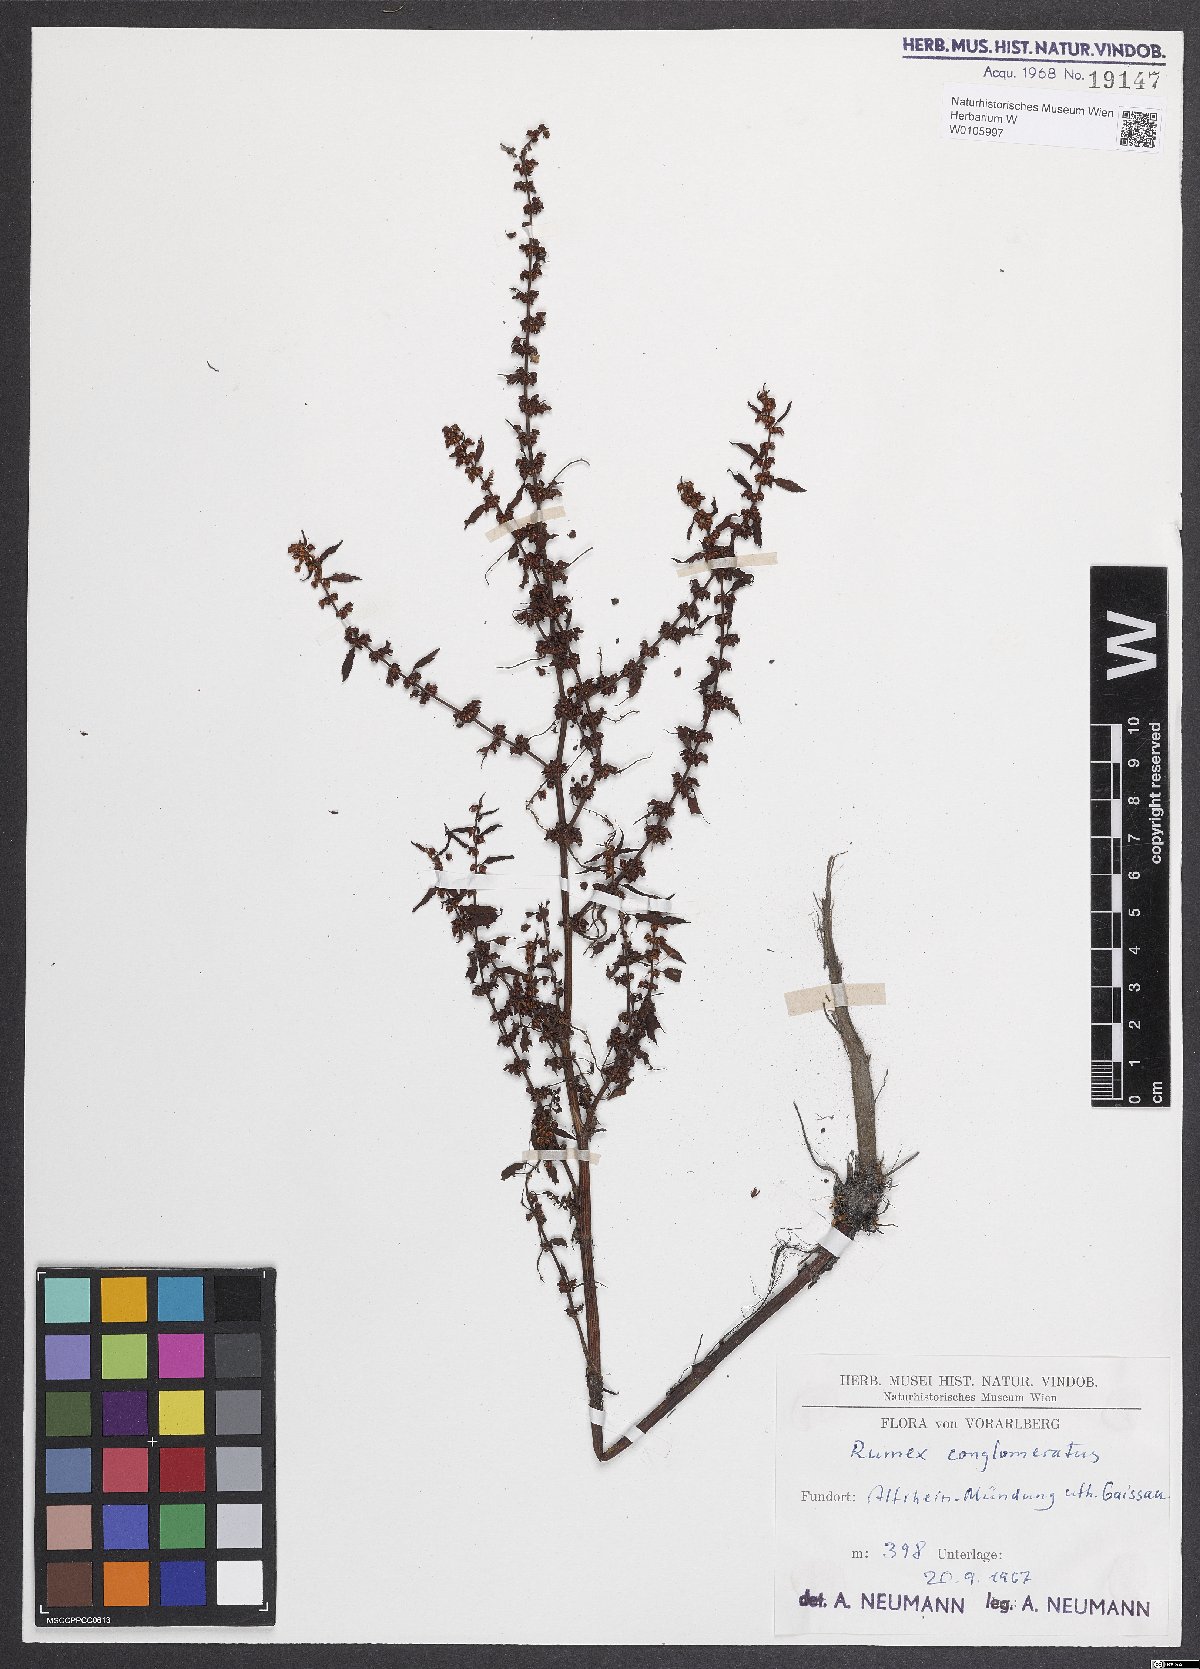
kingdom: Plantae
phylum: Tracheophyta
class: Magnoliopsida
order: Caryophyllales
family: Polygonaceae
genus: Rumex
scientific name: Rumex conglomeratus
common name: Clustered dock
